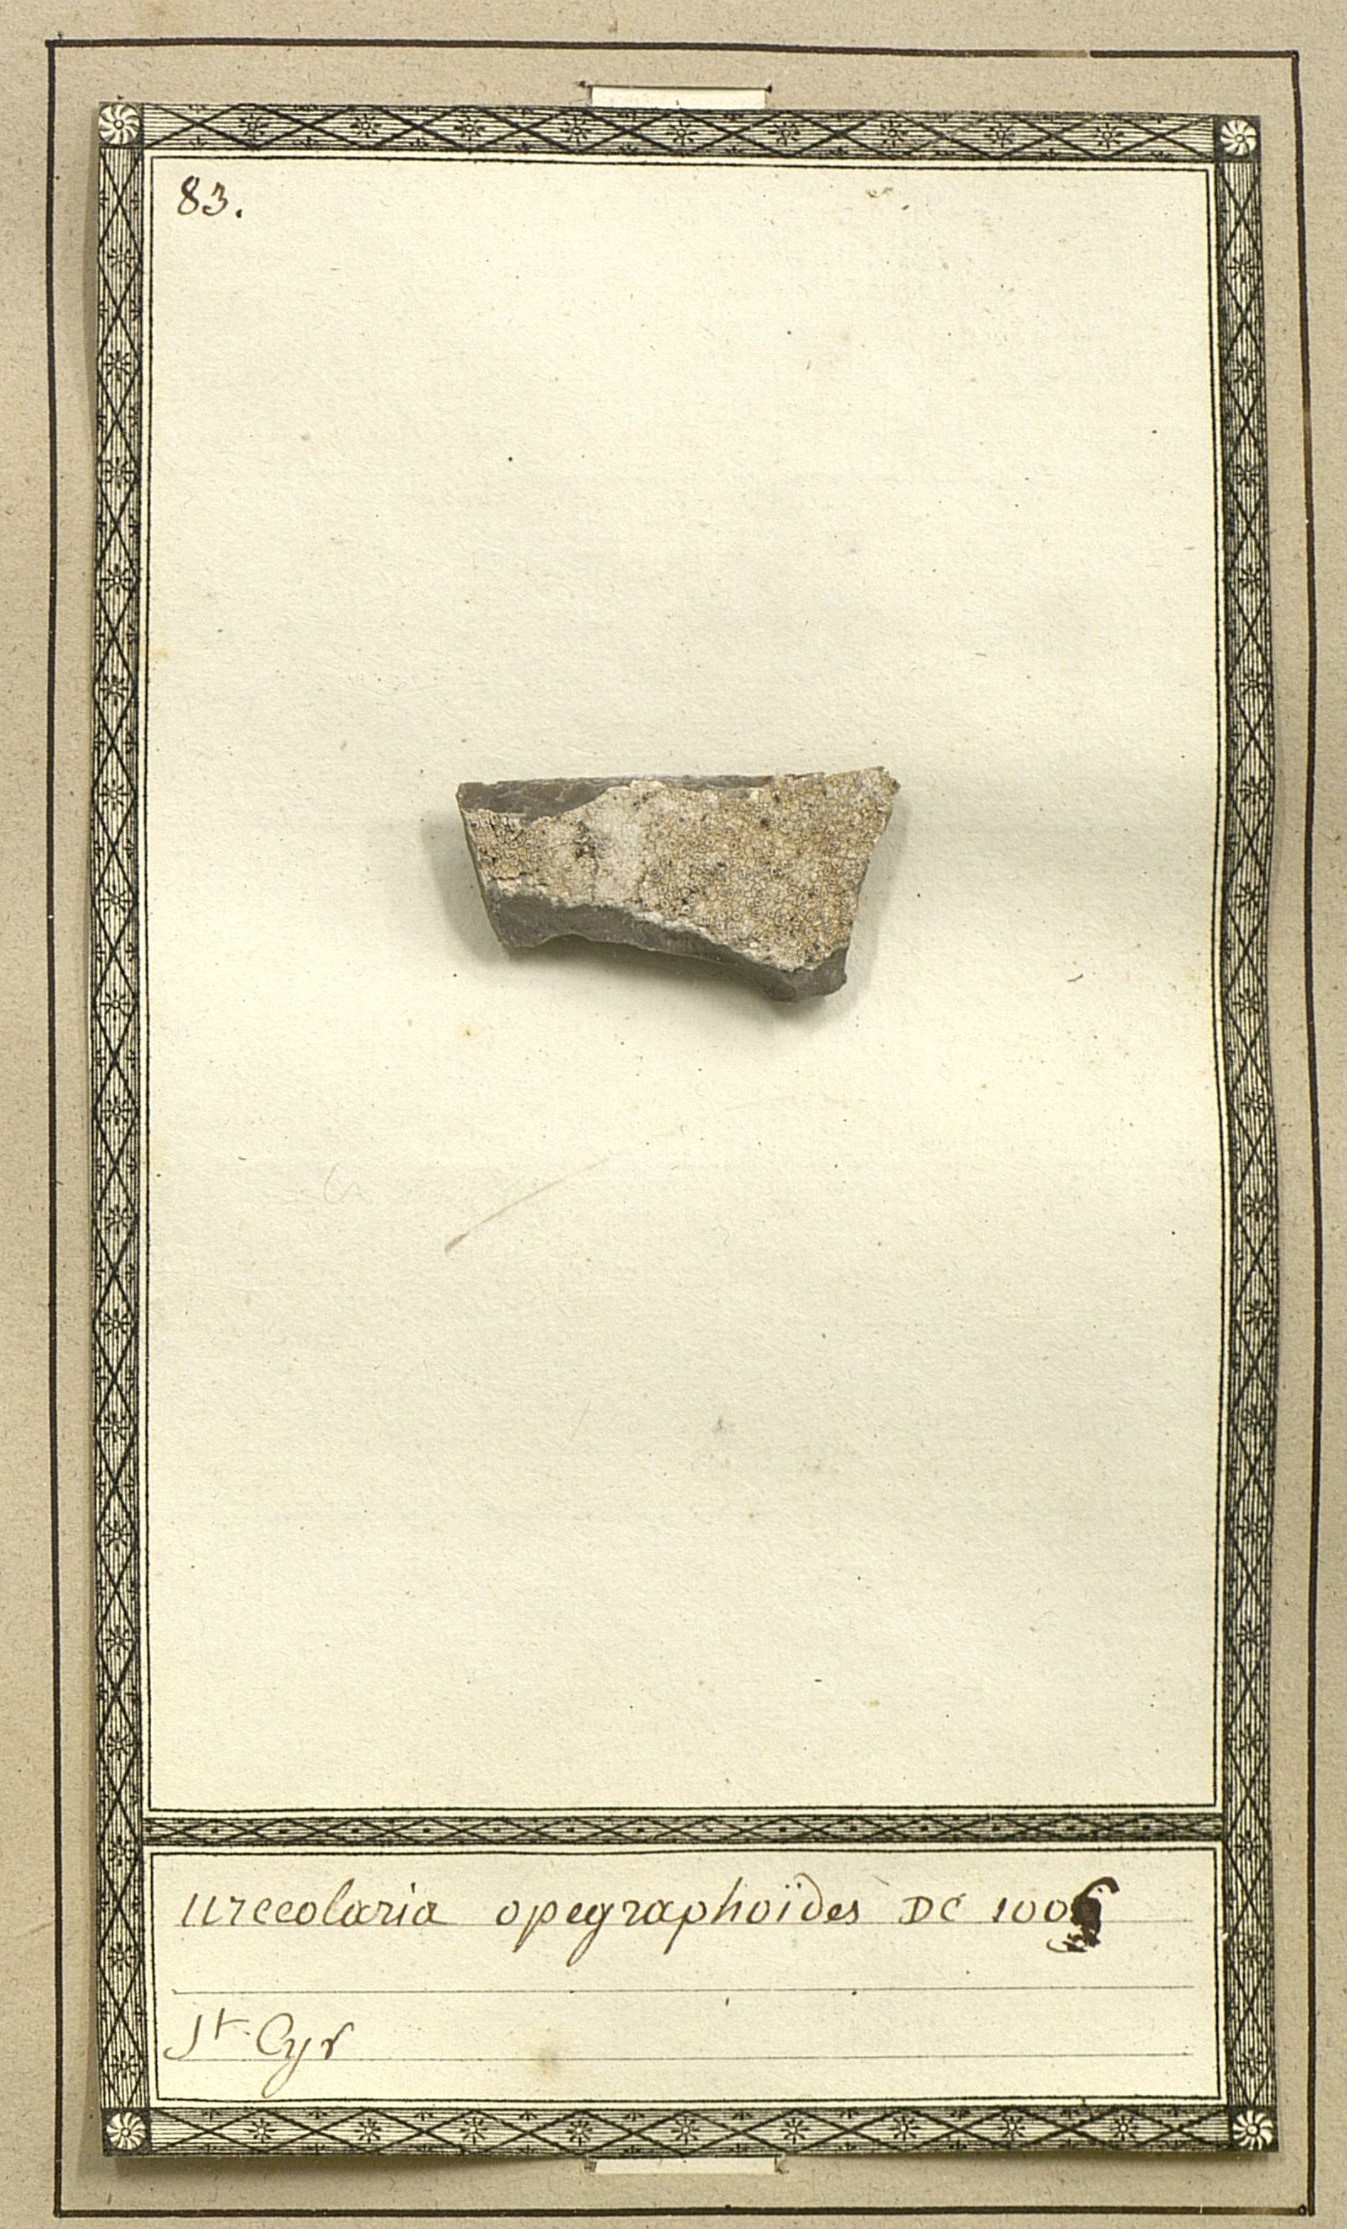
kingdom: Fungi
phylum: Ascomycota
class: Lecanoromycetes
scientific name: Lecanoromycetes
